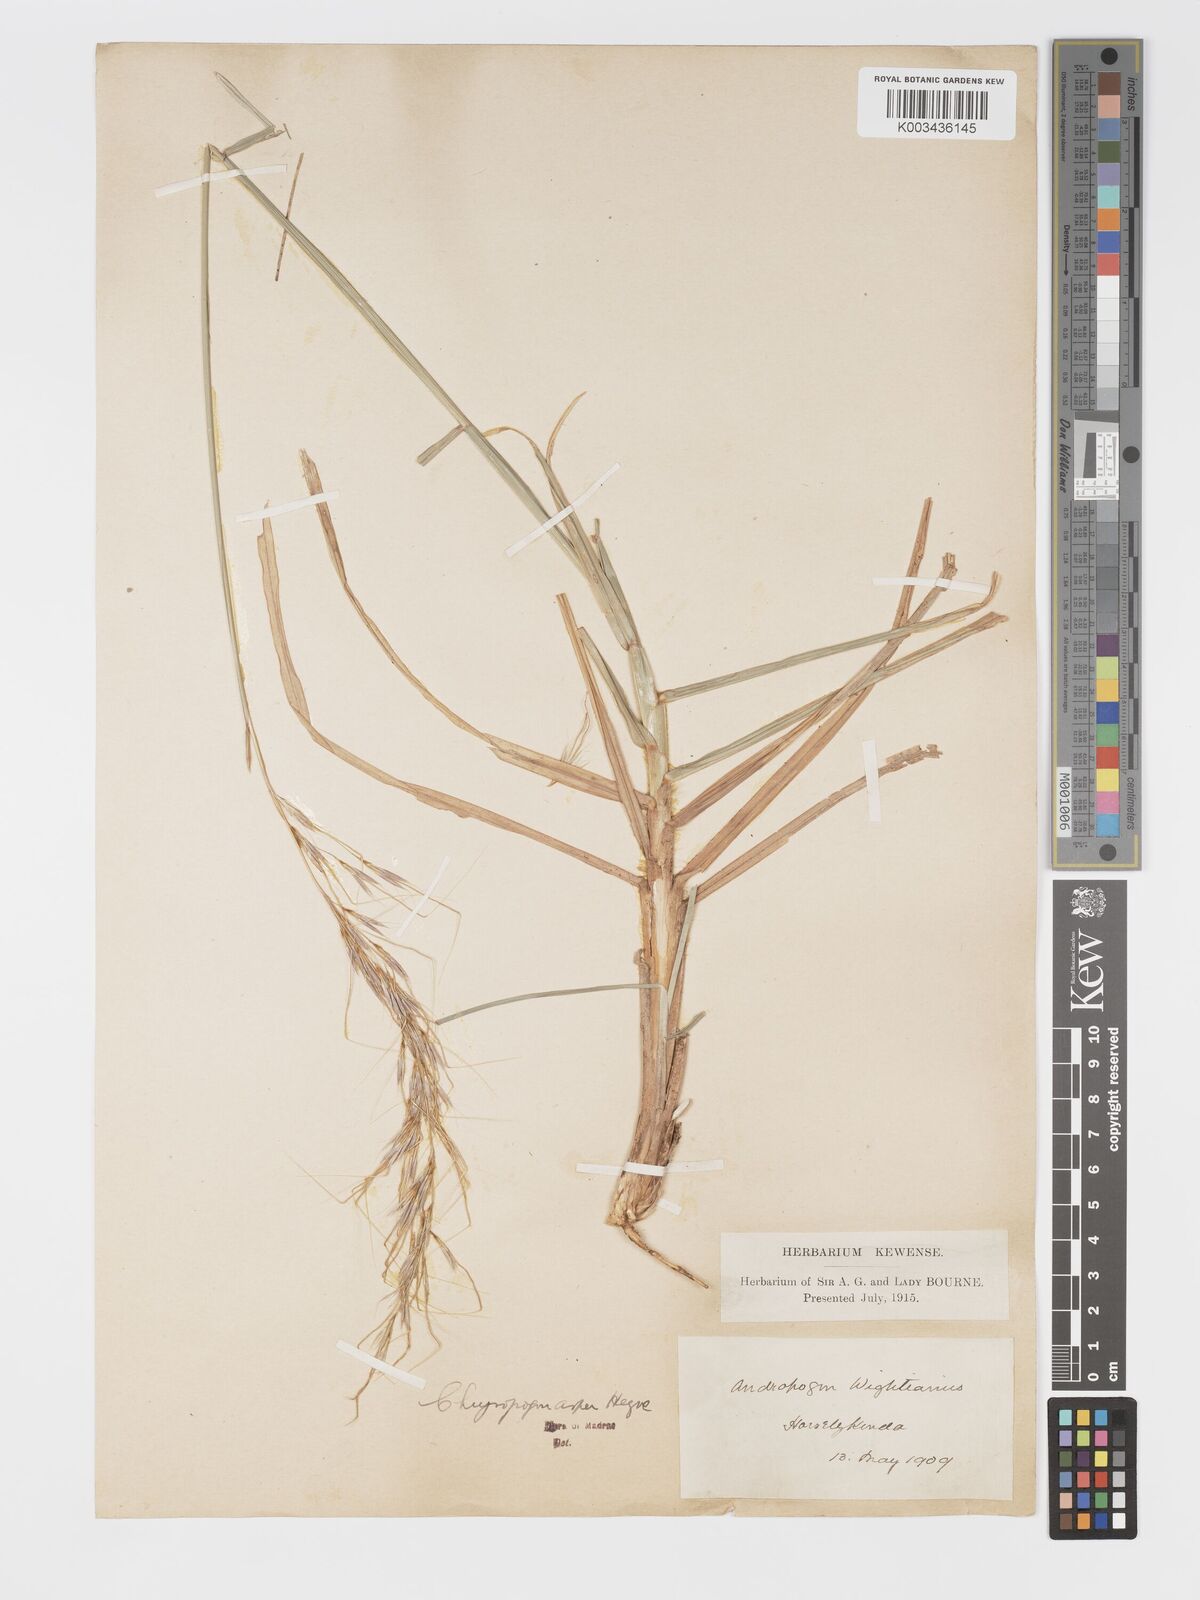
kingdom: Plantae
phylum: Tracheophyta
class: Liliopsida
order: Poales
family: Poaceae
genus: Chrysopogon
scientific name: Chrysopogon asper
